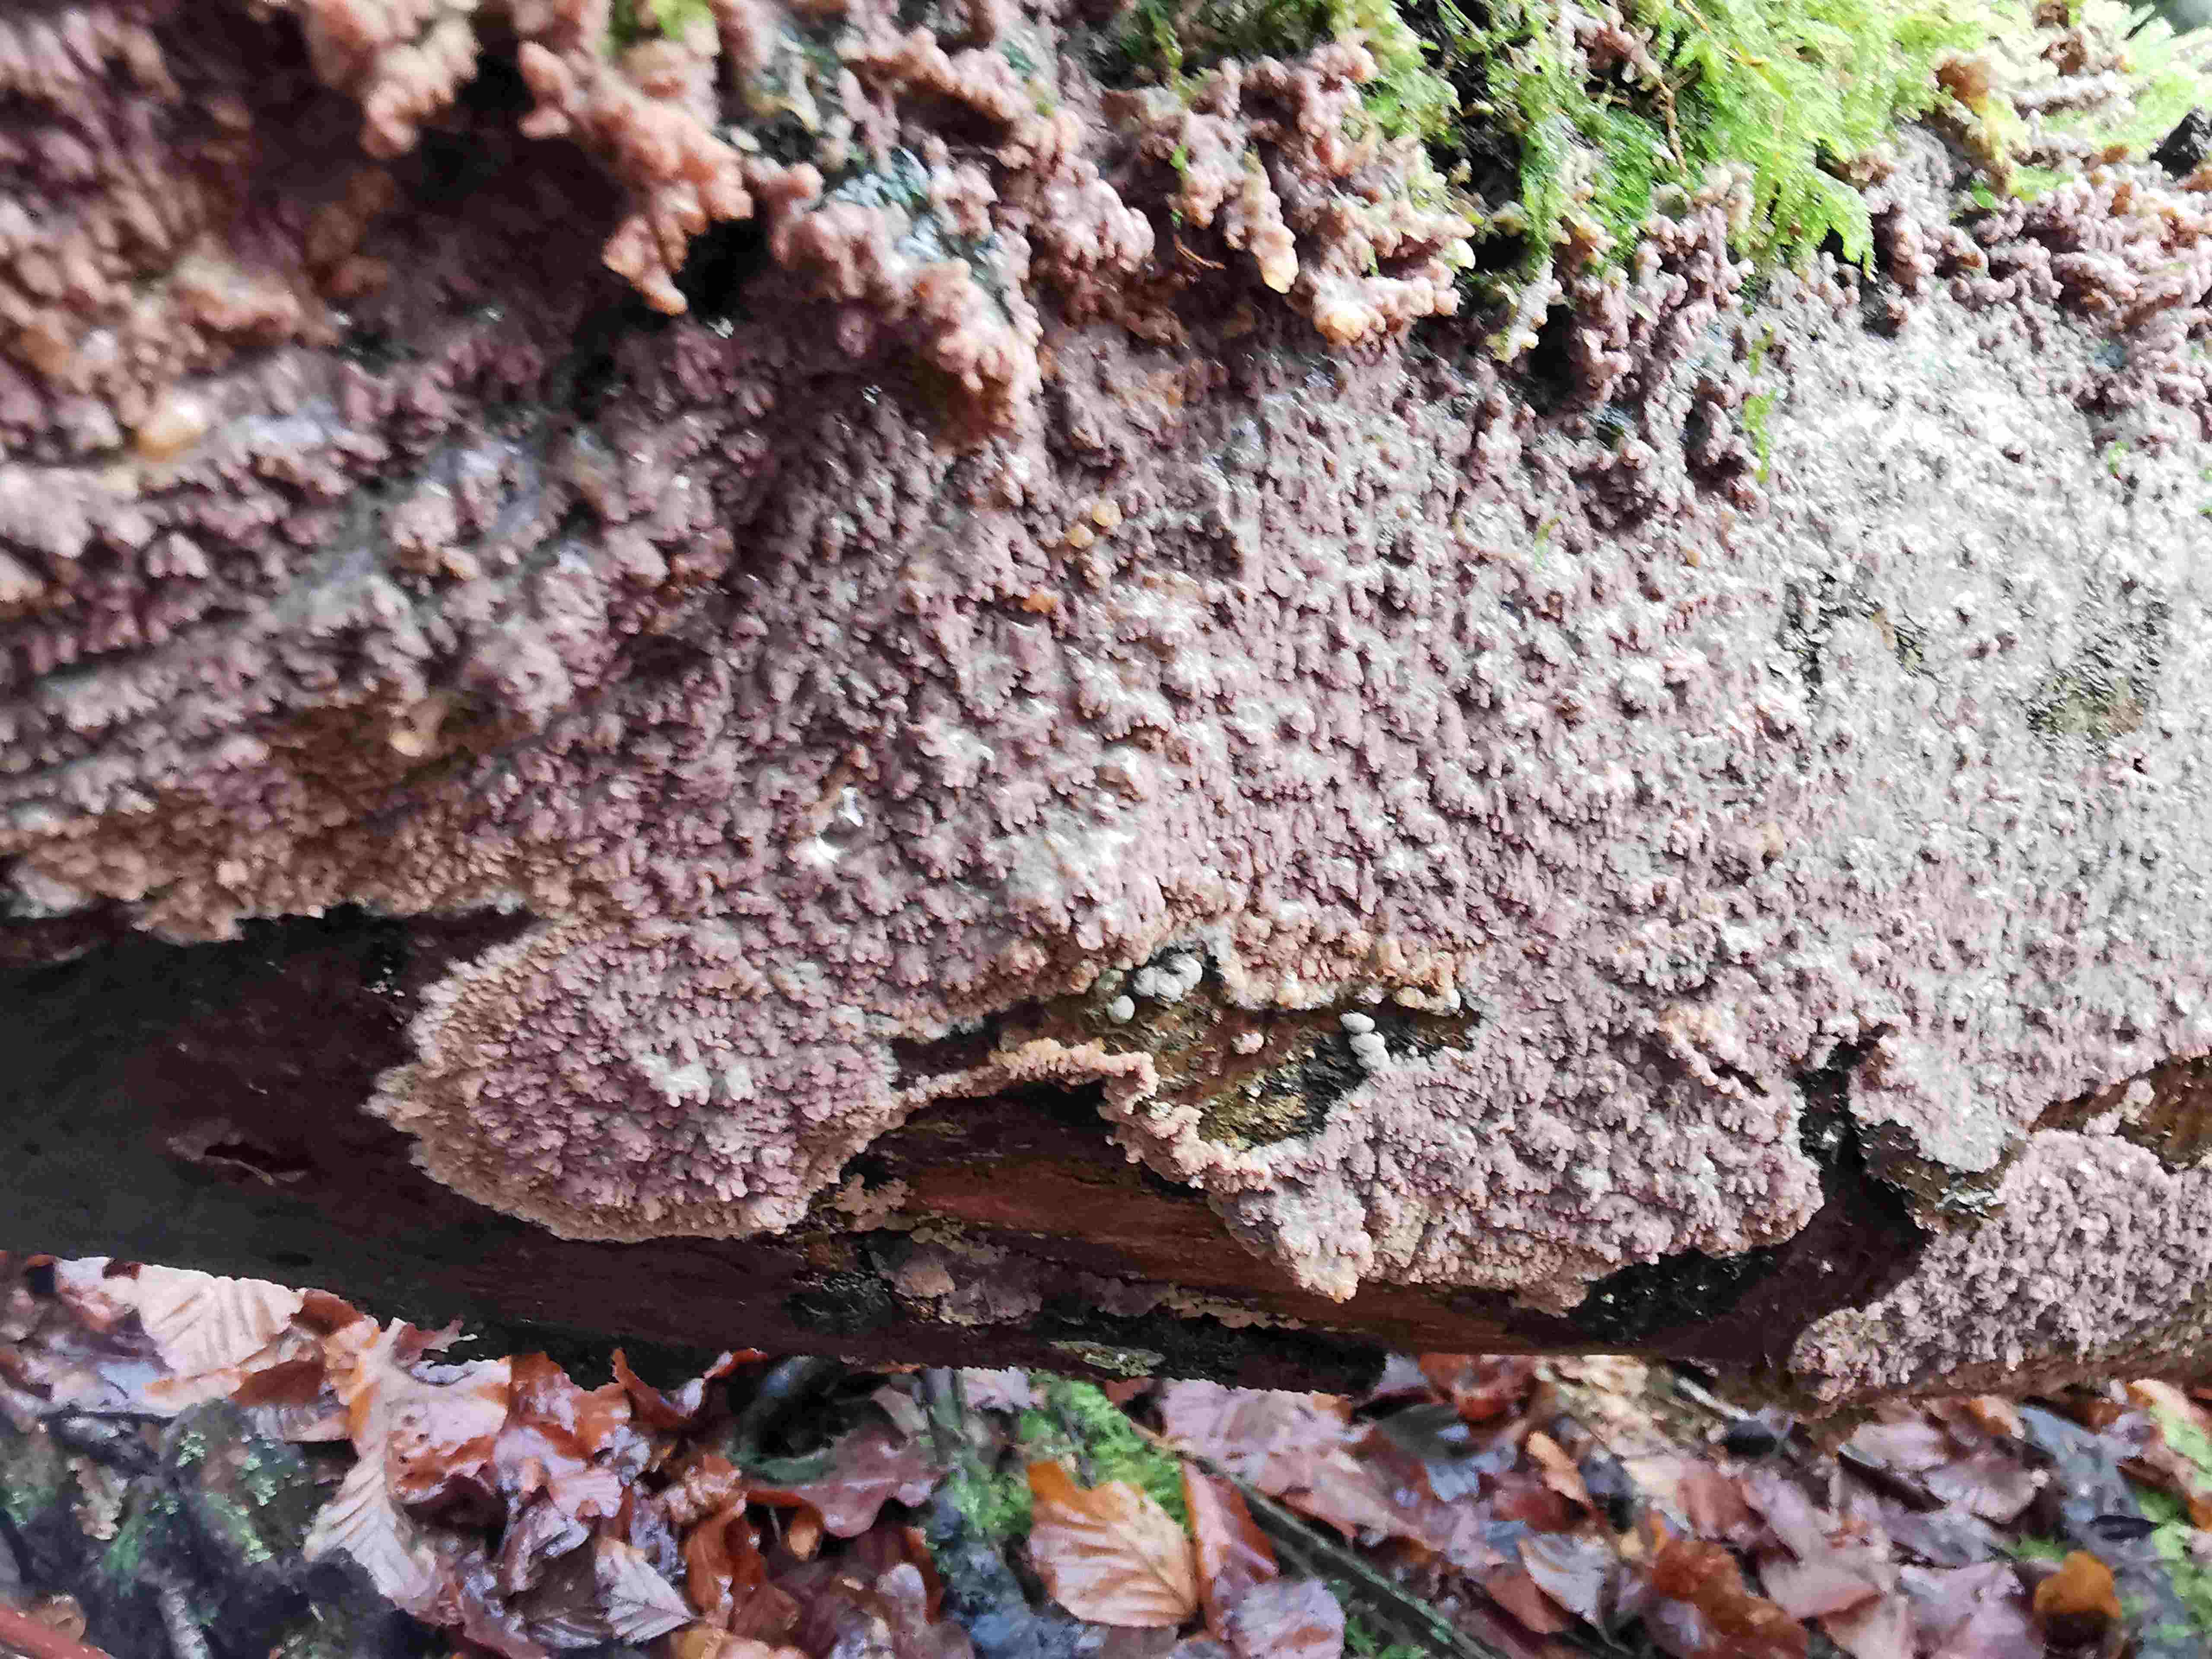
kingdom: Fungi
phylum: Basidiomycota
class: Agaricomycetes
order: Polyporales
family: Meruliaceae
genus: Phlebia
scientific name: Phlebia radiata
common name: stråle-åresvamp
